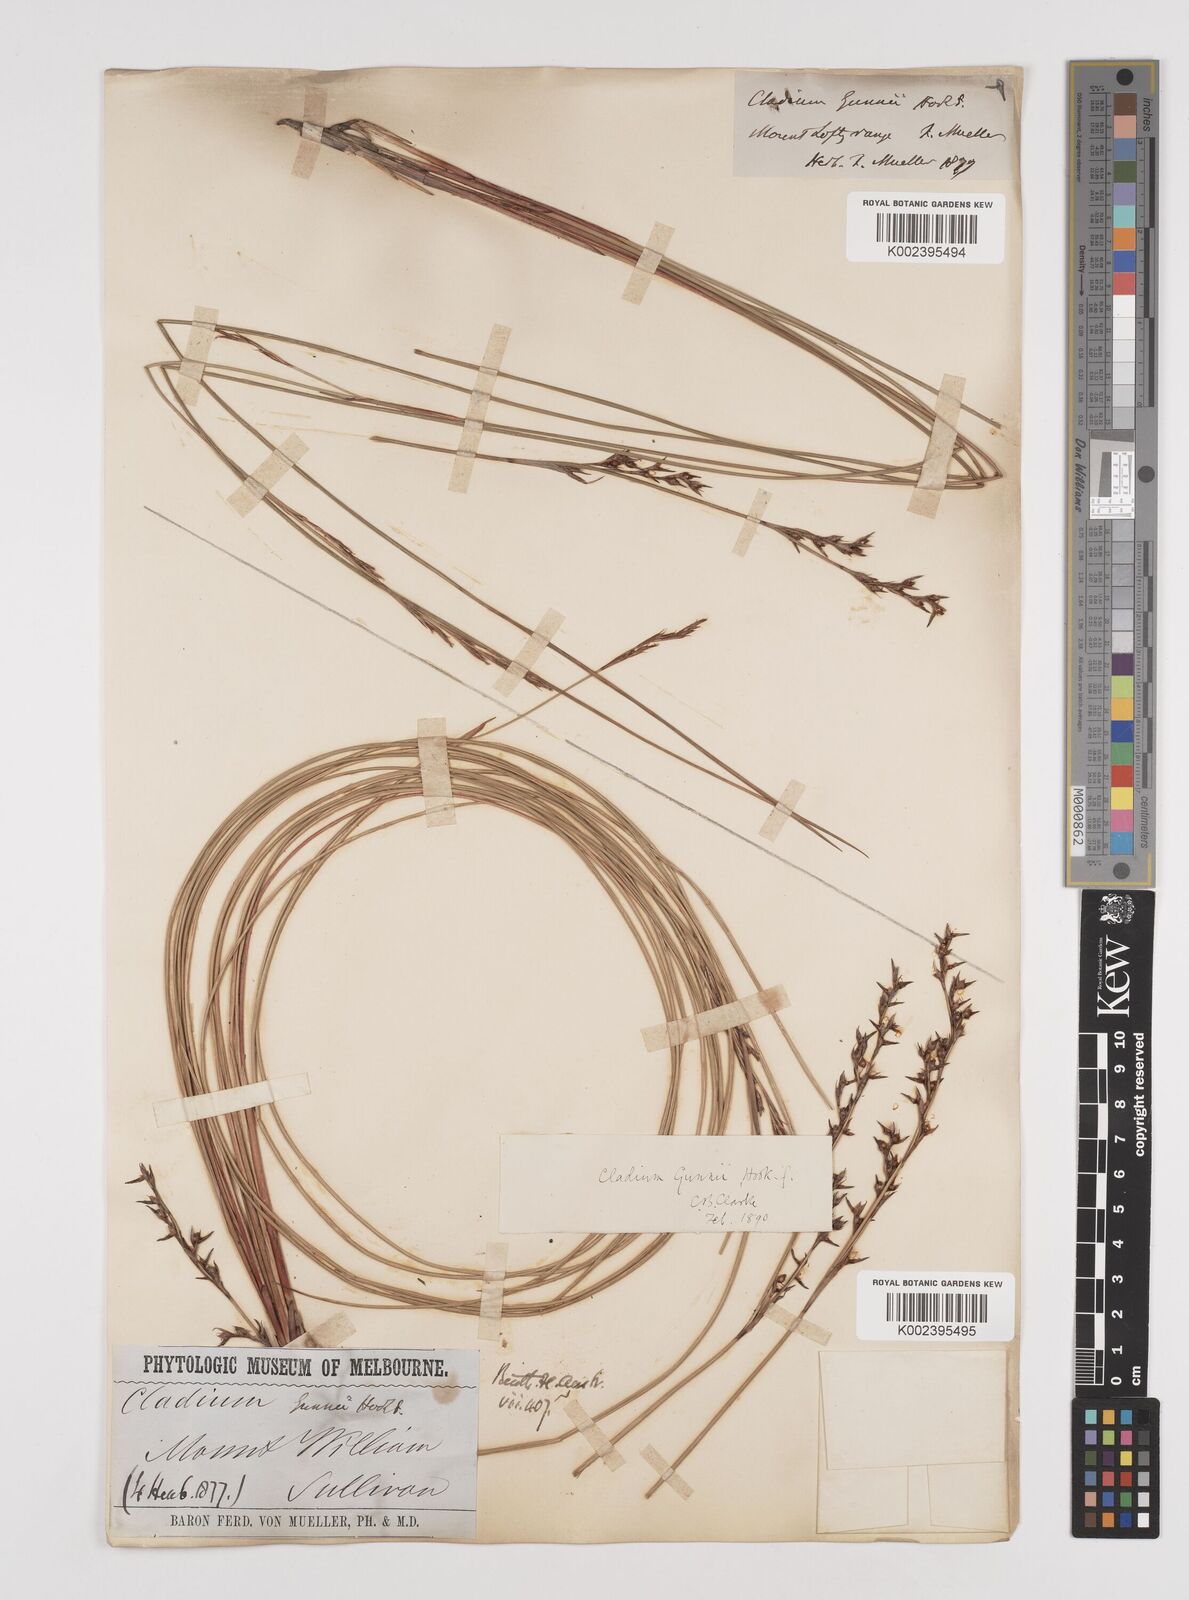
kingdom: Plantae
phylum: Tracheophyta
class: Liliopsida
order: Poales
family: Cyperaceae
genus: Machaerina
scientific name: Machaerina gunnii
